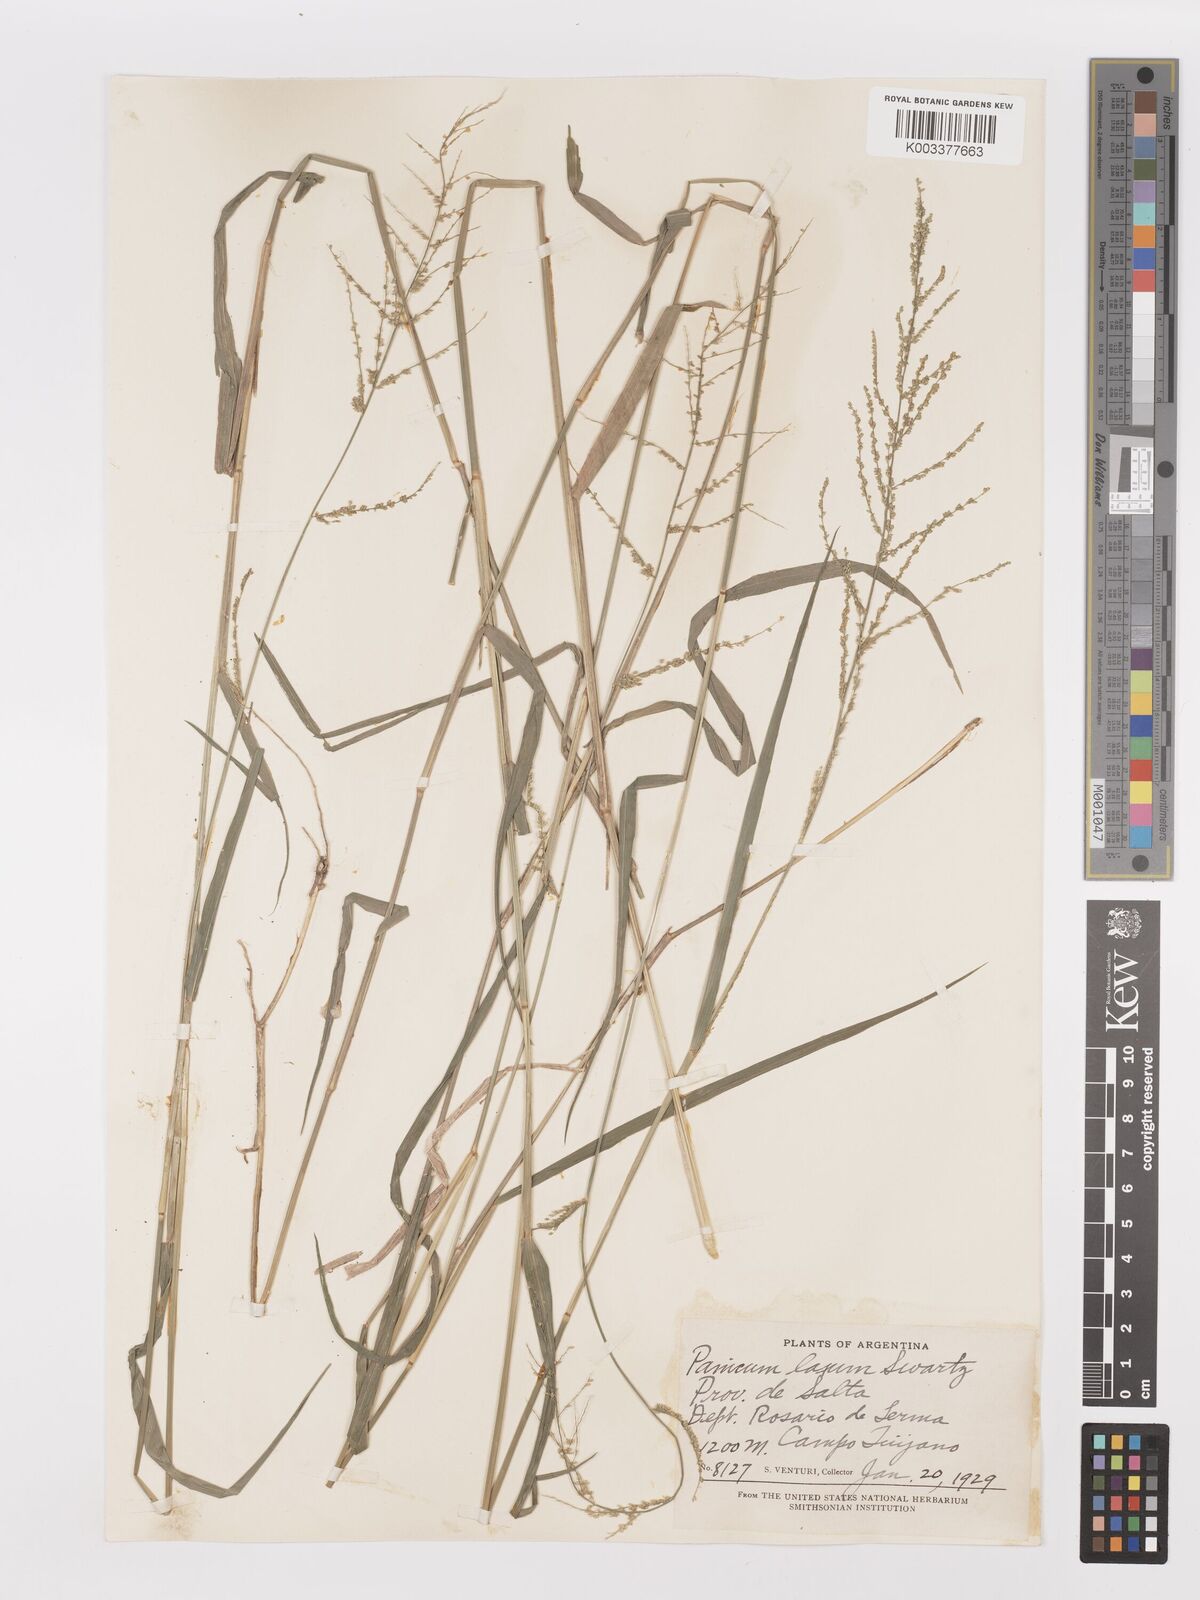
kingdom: Plantae
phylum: Tracheophyta
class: Liliopsida
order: Poales
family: Poaceae
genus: Steinchisma
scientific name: Steinchisma laxum
